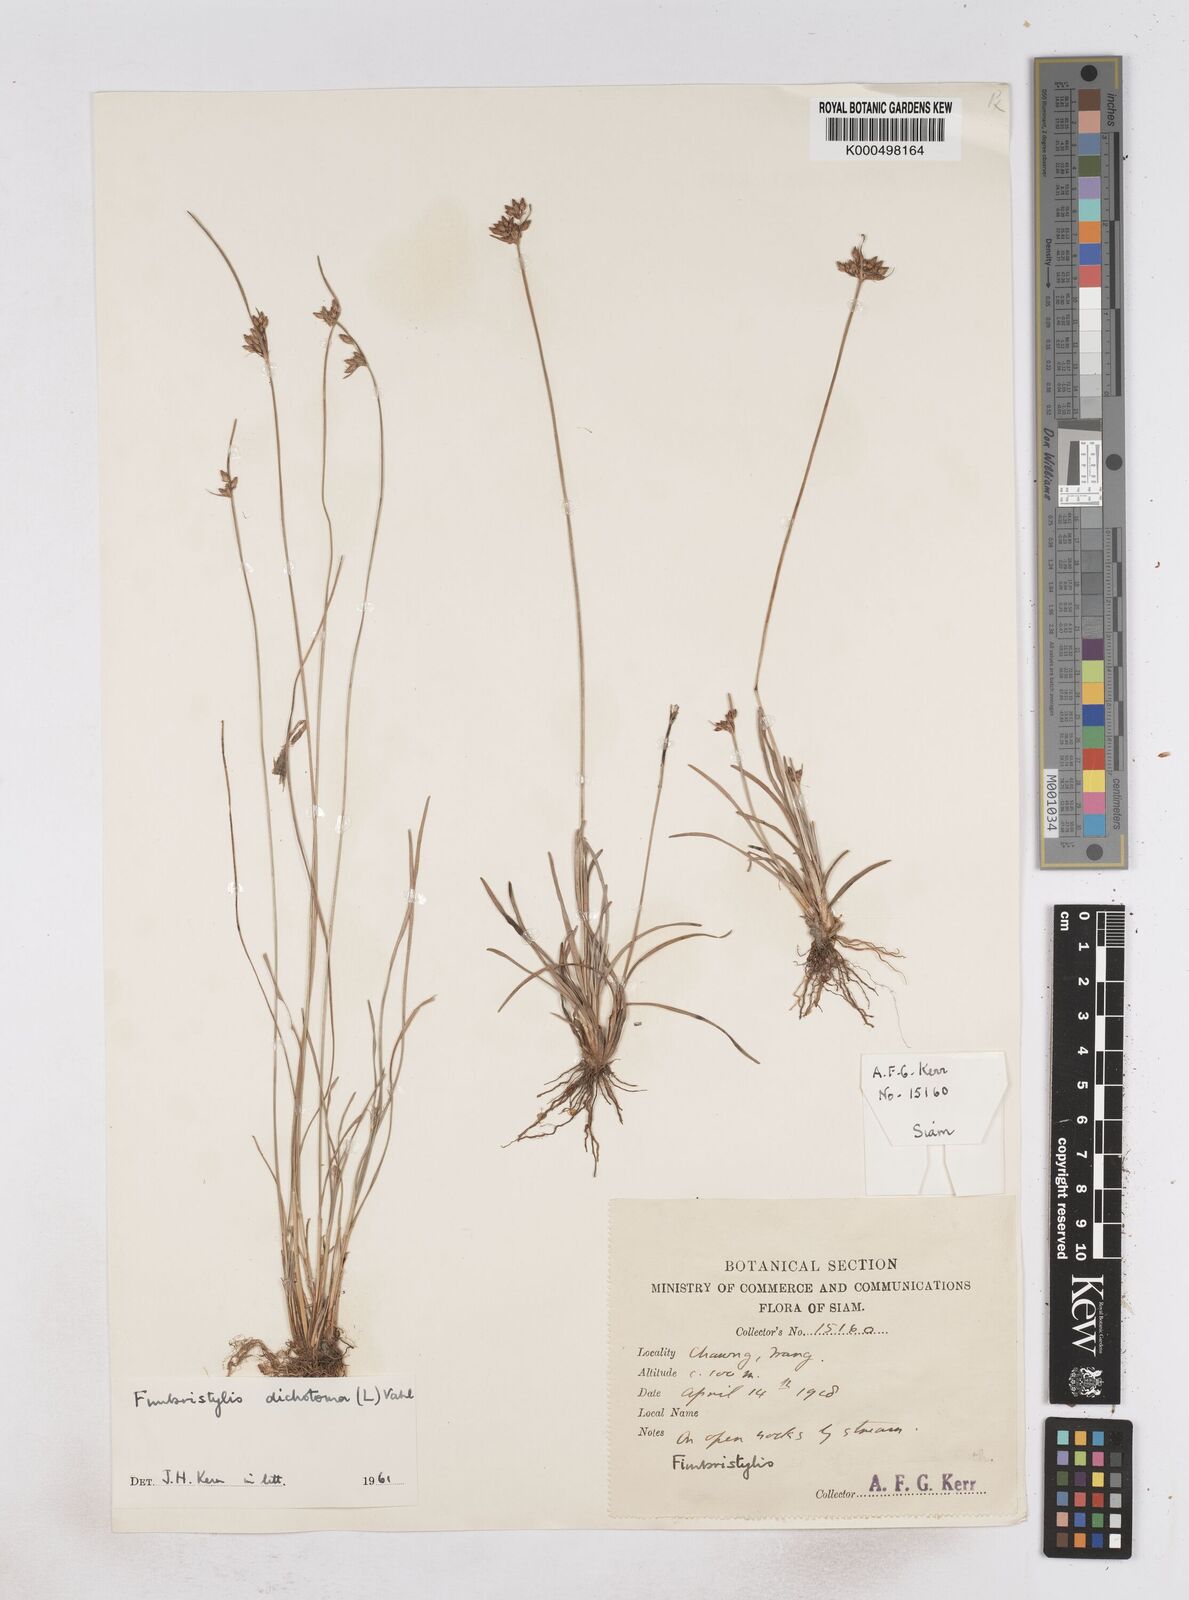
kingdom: Plantae
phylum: Tracheophyta
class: Liliopsida
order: Poales
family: Cyperaceae
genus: Fimbristylis
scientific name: Fimbristylis dichotoma
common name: Forked fimbry
